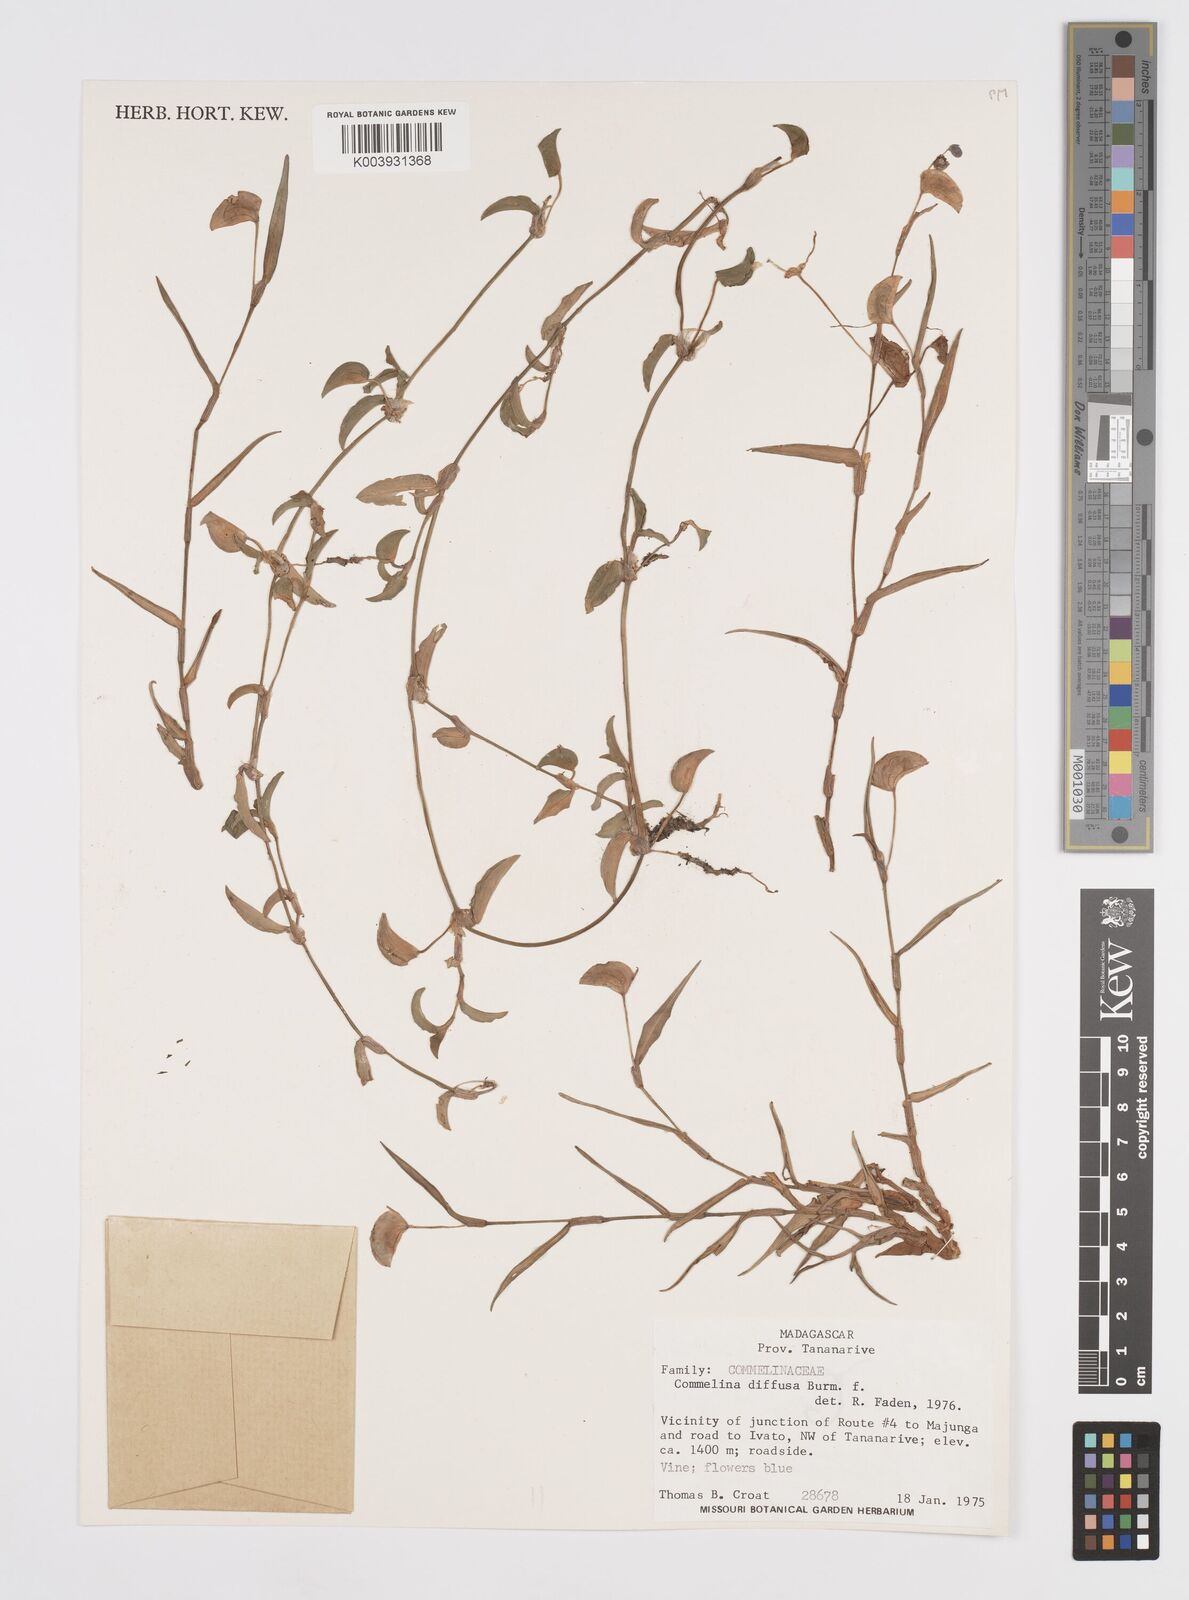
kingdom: Plantae
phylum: Tracheophyta
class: Liliopsida
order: Commelinales
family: Commelinaceae
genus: Commelina
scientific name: Commelina diffusa
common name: Climbing dayflower
